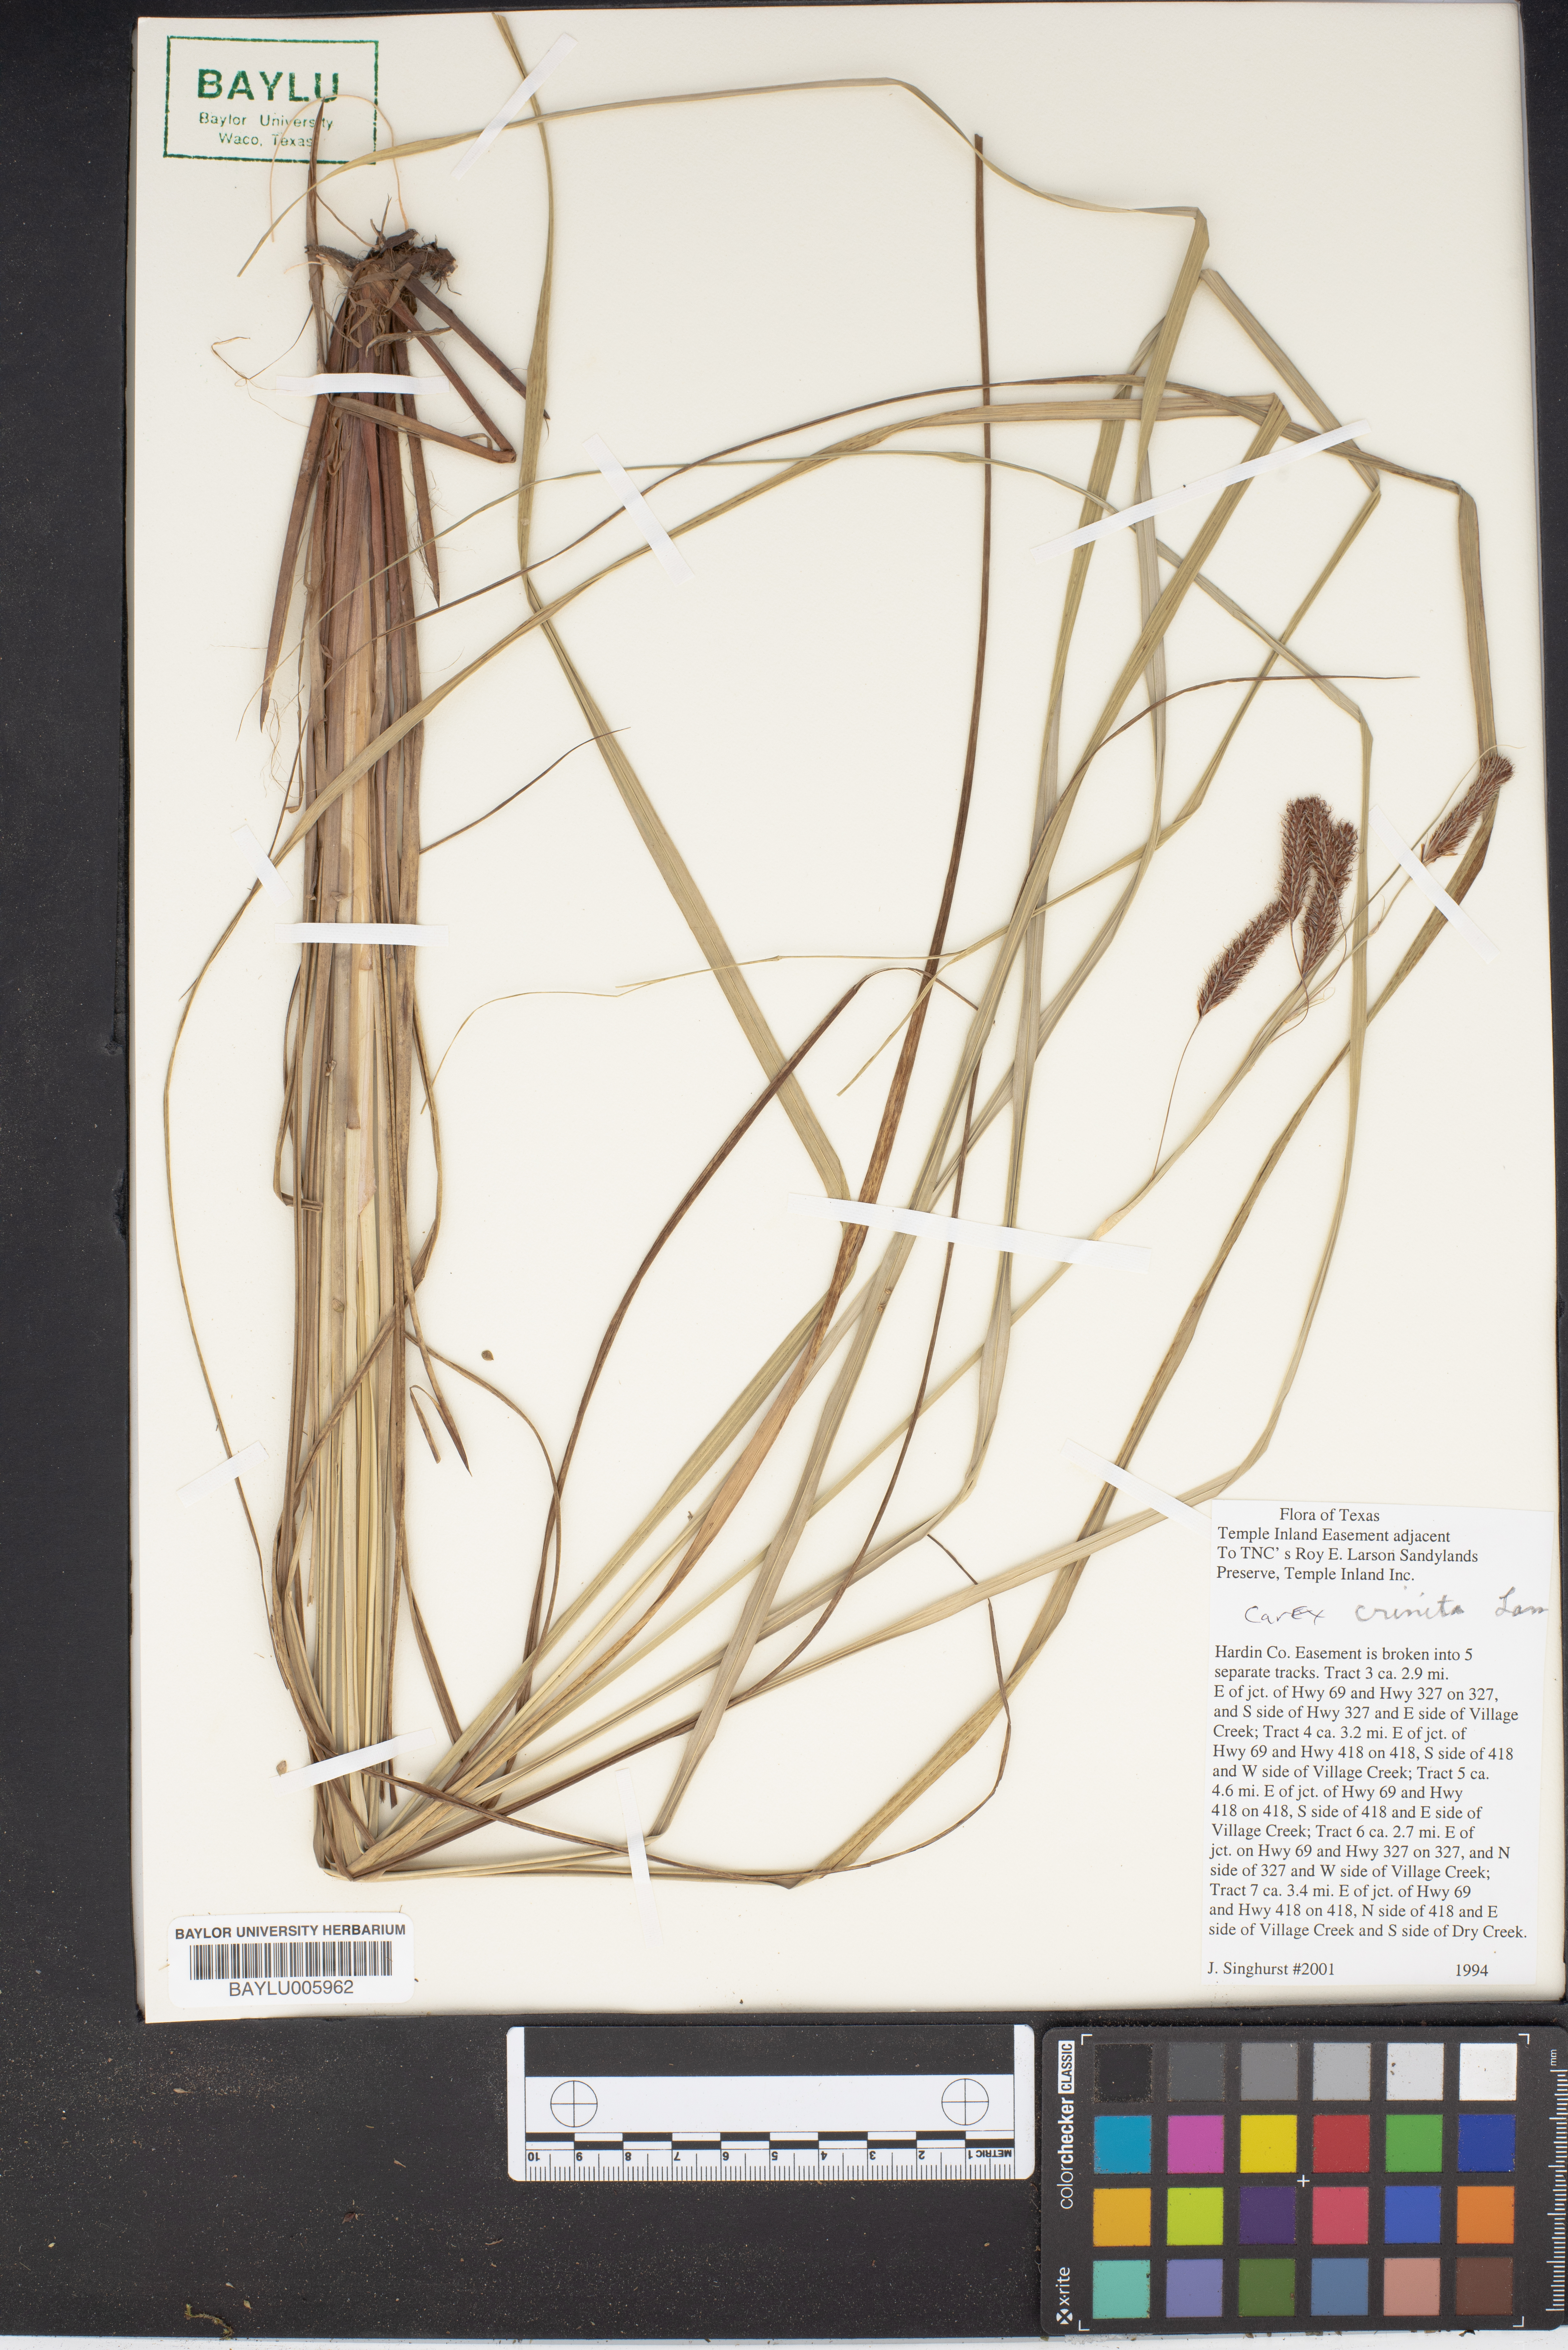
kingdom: Plantae
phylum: Tracheophyta
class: Liliopsida
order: Poales
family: Cyperaceae
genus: Carex
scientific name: Carex crinita
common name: Fringed sedge
